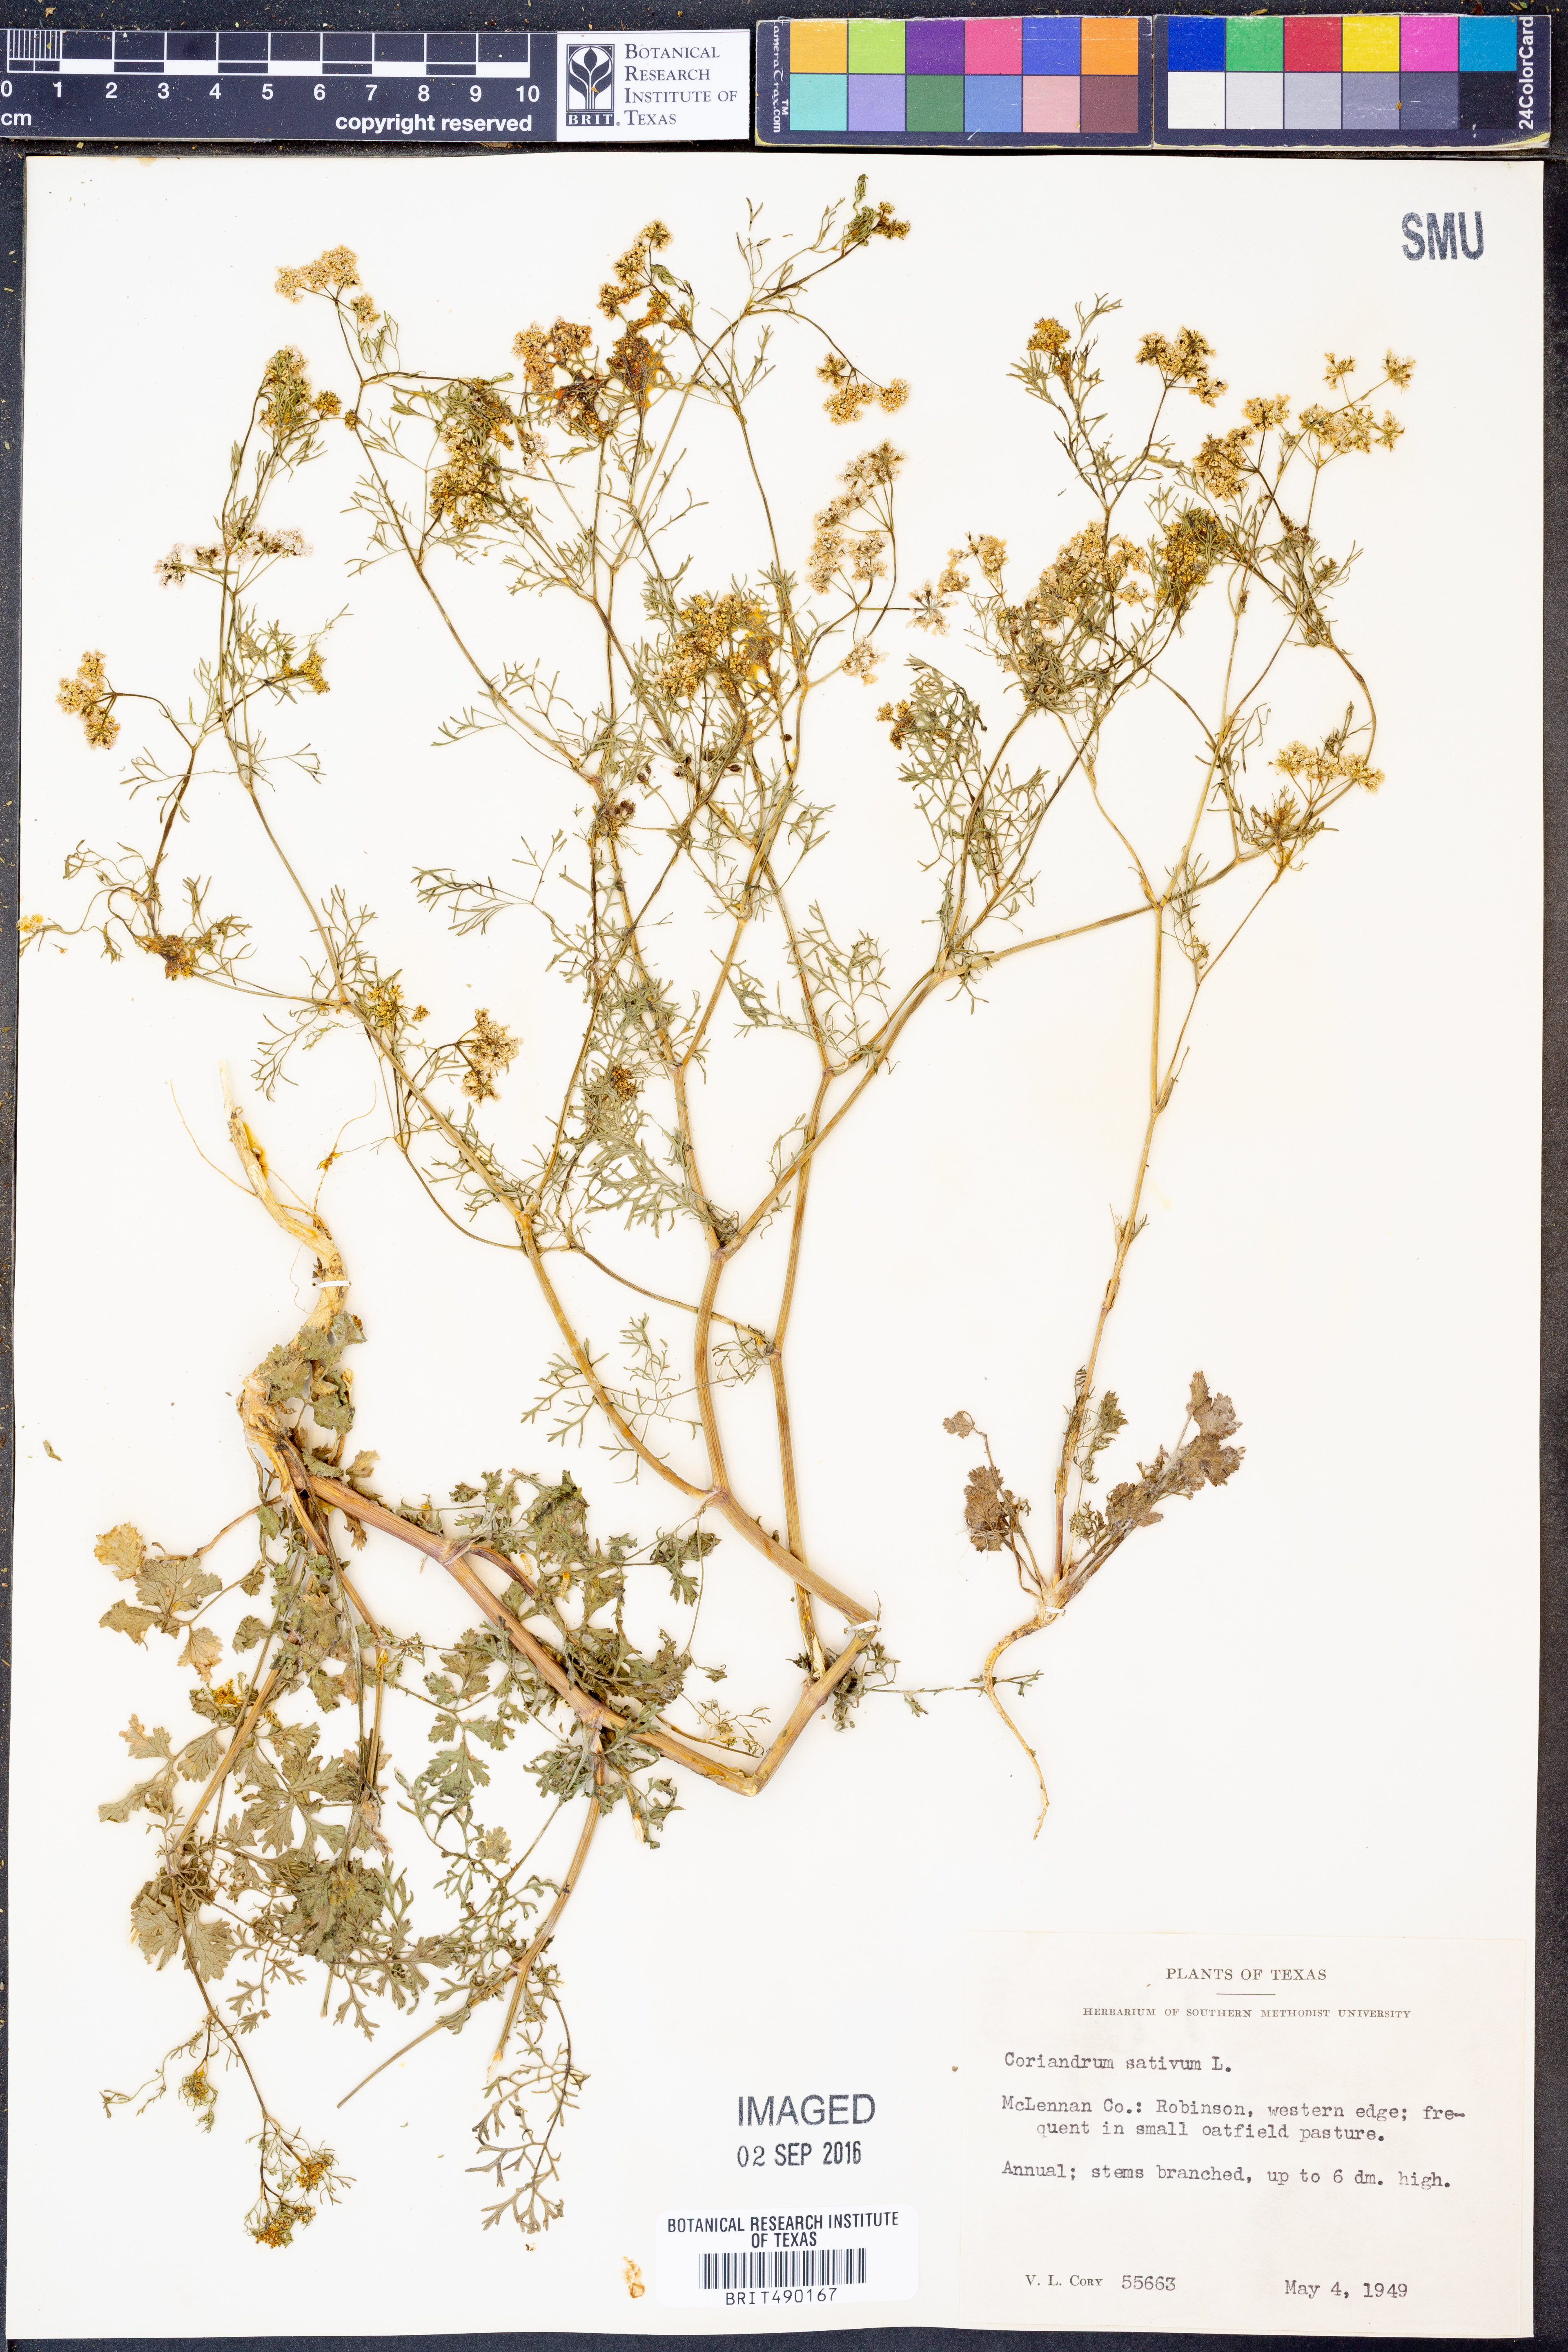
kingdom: Plantae
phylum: Tracheophyta
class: Magnoliopsida
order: Apiales
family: Apiaceae
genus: Coriandrum
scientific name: Coriandrum sativum
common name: Coriander
